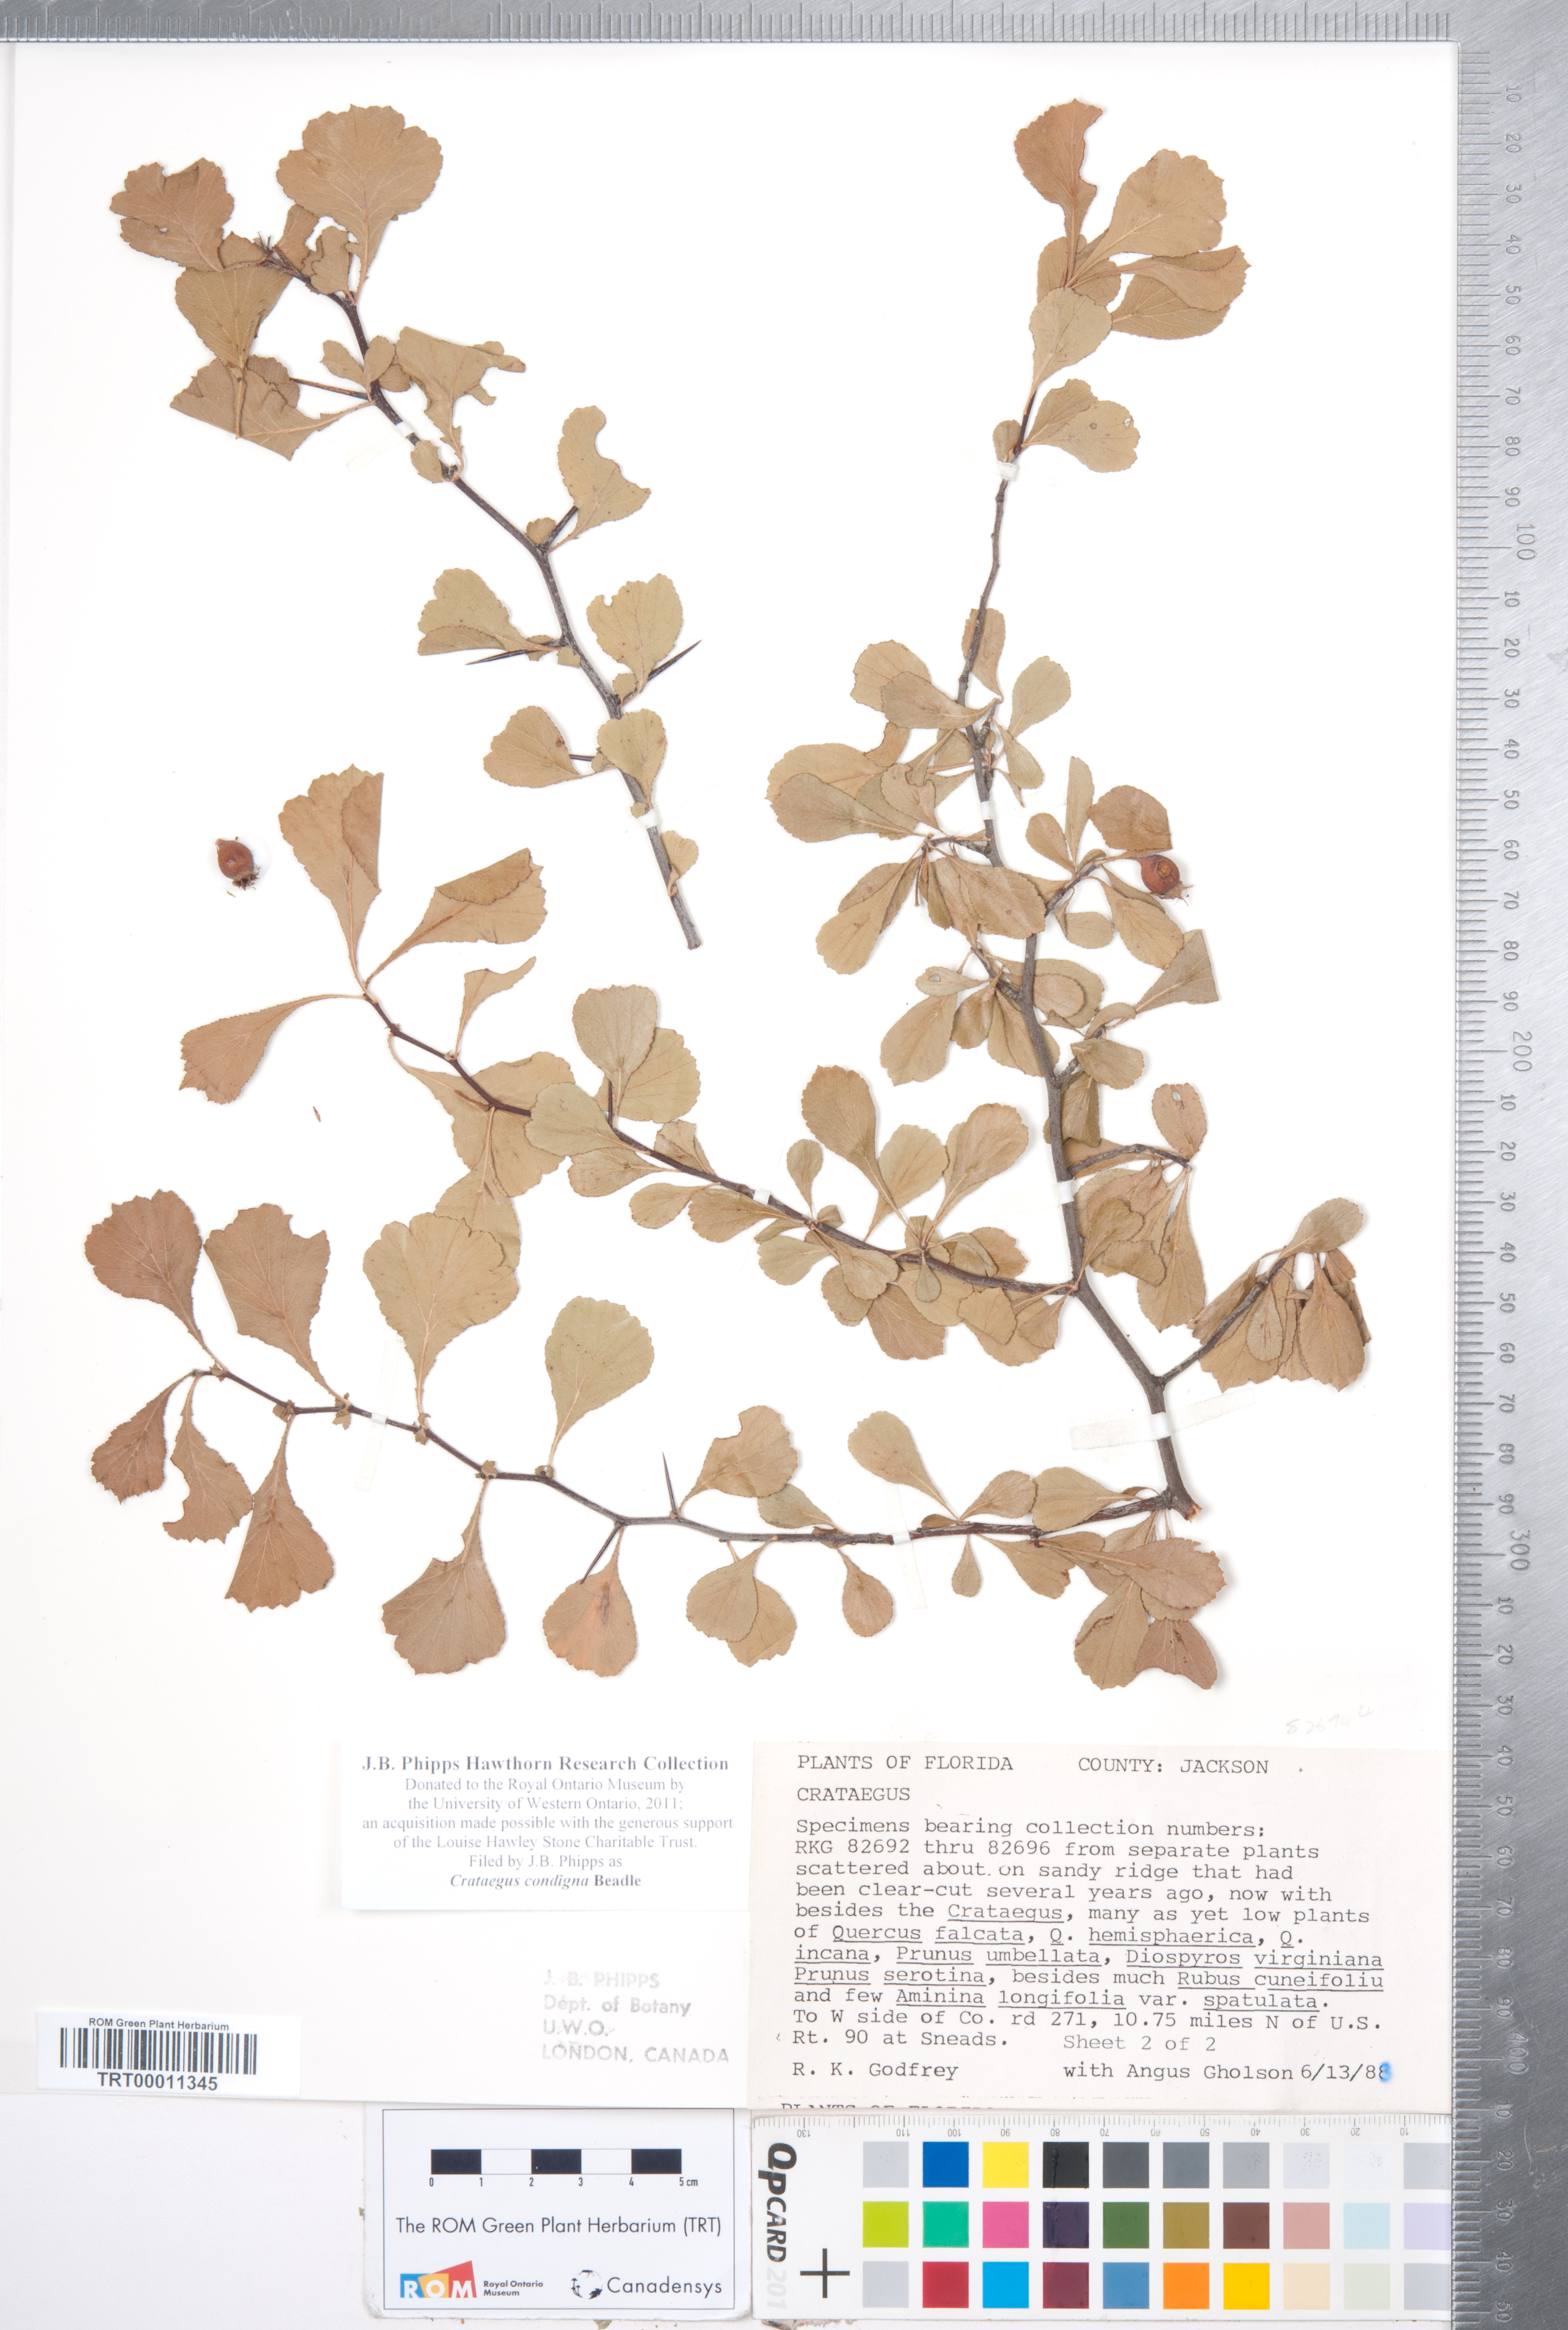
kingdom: Plantae
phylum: Tracheophyta
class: Magnoliopsida
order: Rosales
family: Rosaceae
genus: Crataegus
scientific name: Crataegus condigna
